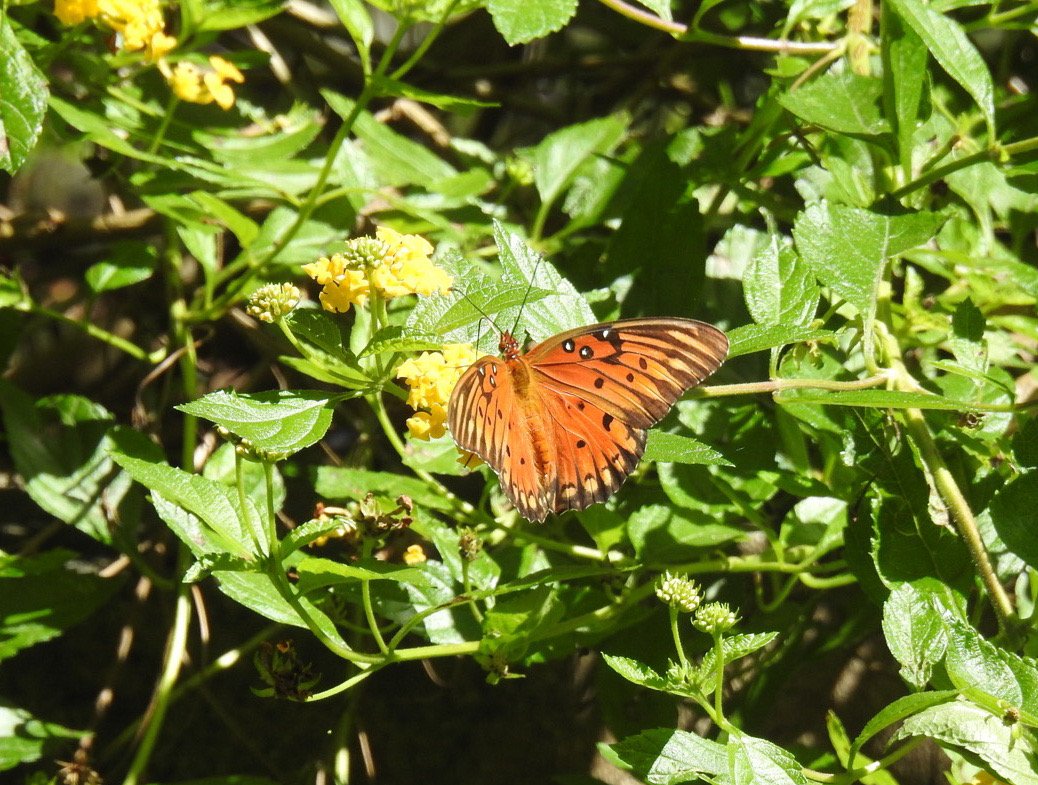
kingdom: Animalia
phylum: Arthropoda
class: Insecta
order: Lepidoptera
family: Nymphalidae
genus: Dione
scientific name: Dione vanillae
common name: Gulf Fritillary
